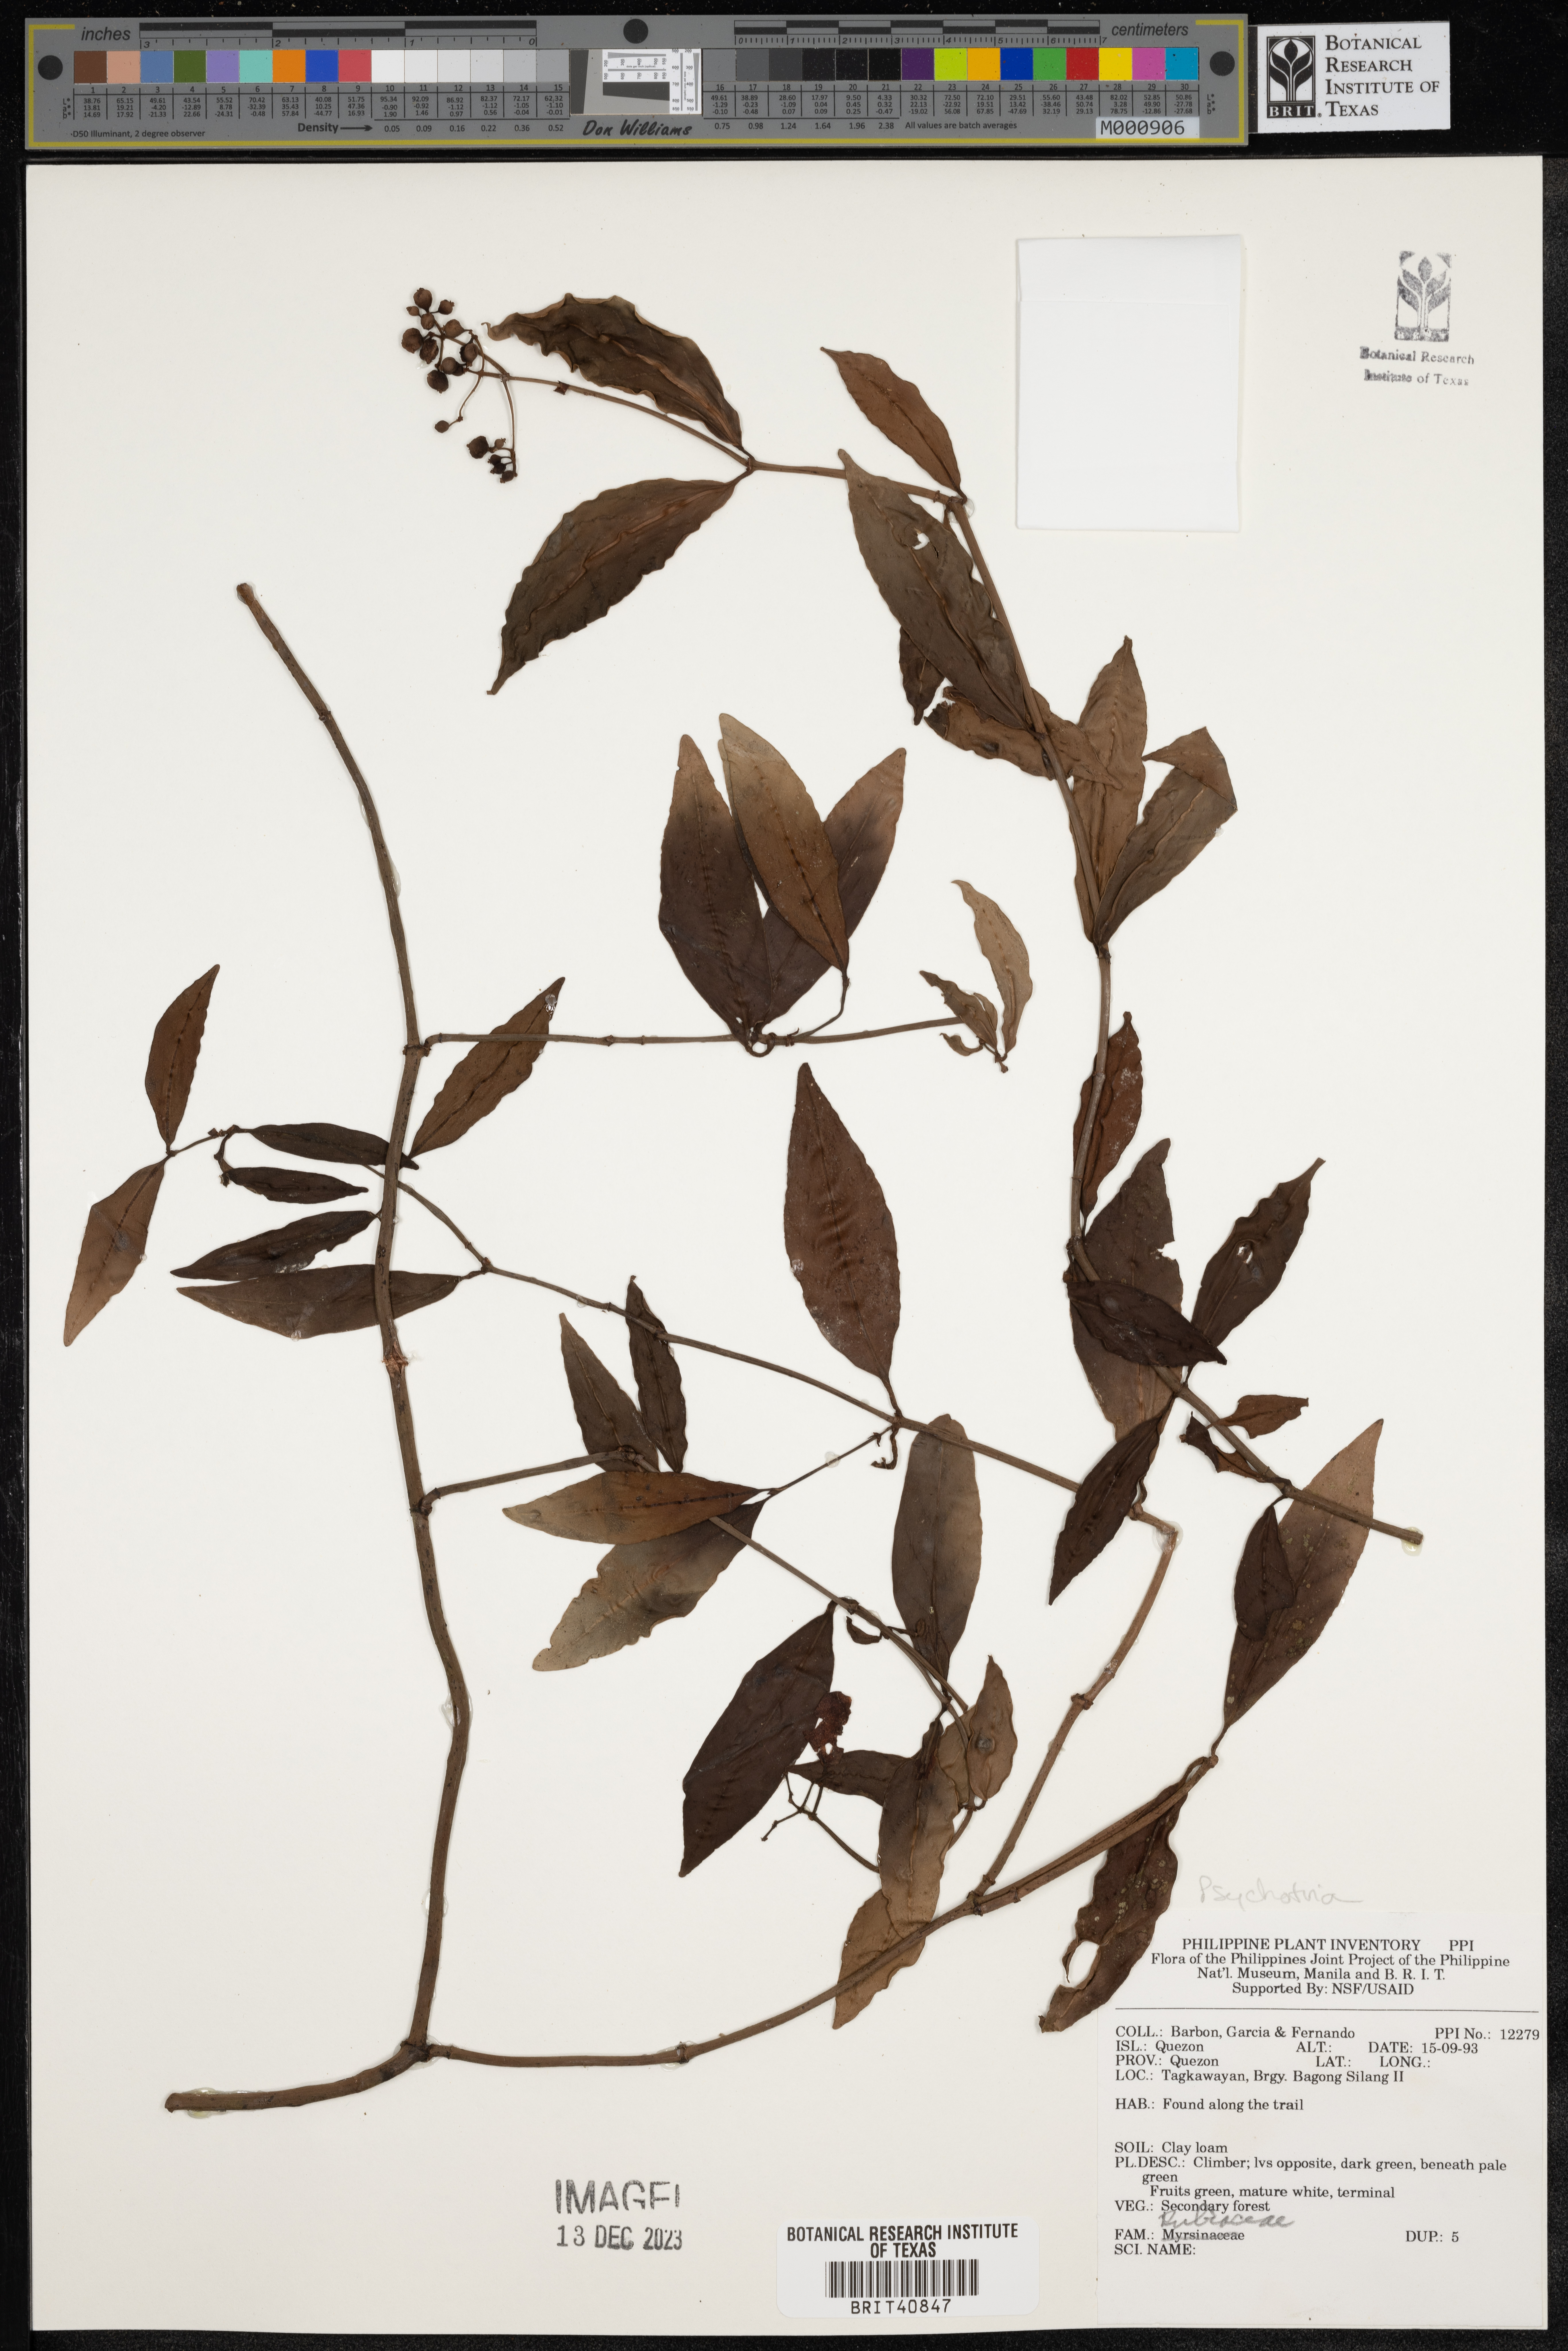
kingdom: Plantae
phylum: Tracheophyta
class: Magnoliopsida
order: Gentianales
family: Rubiaceae
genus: Psychotria
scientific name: Psychotria
